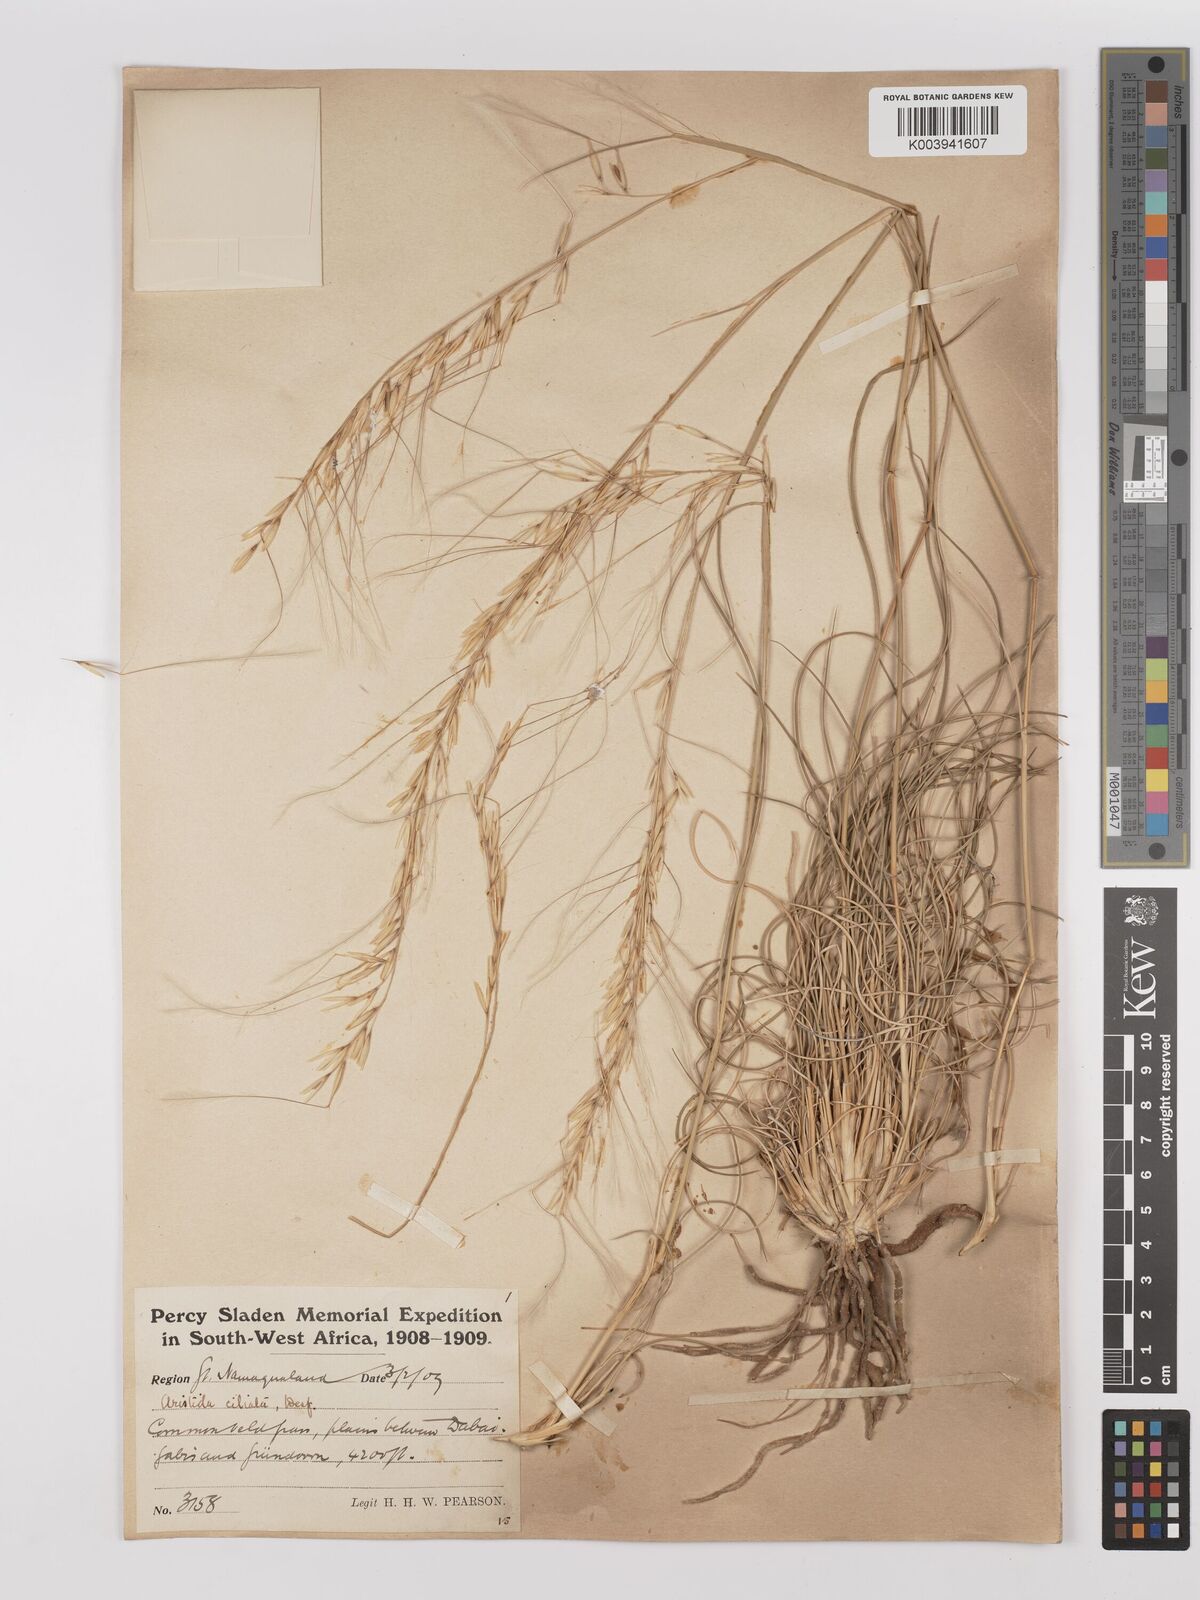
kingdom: Plantae
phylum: Tracheophyta
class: Liliopsida
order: Poales
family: Poaceae
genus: Stipagrostis
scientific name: Stipagrostis ciliata
